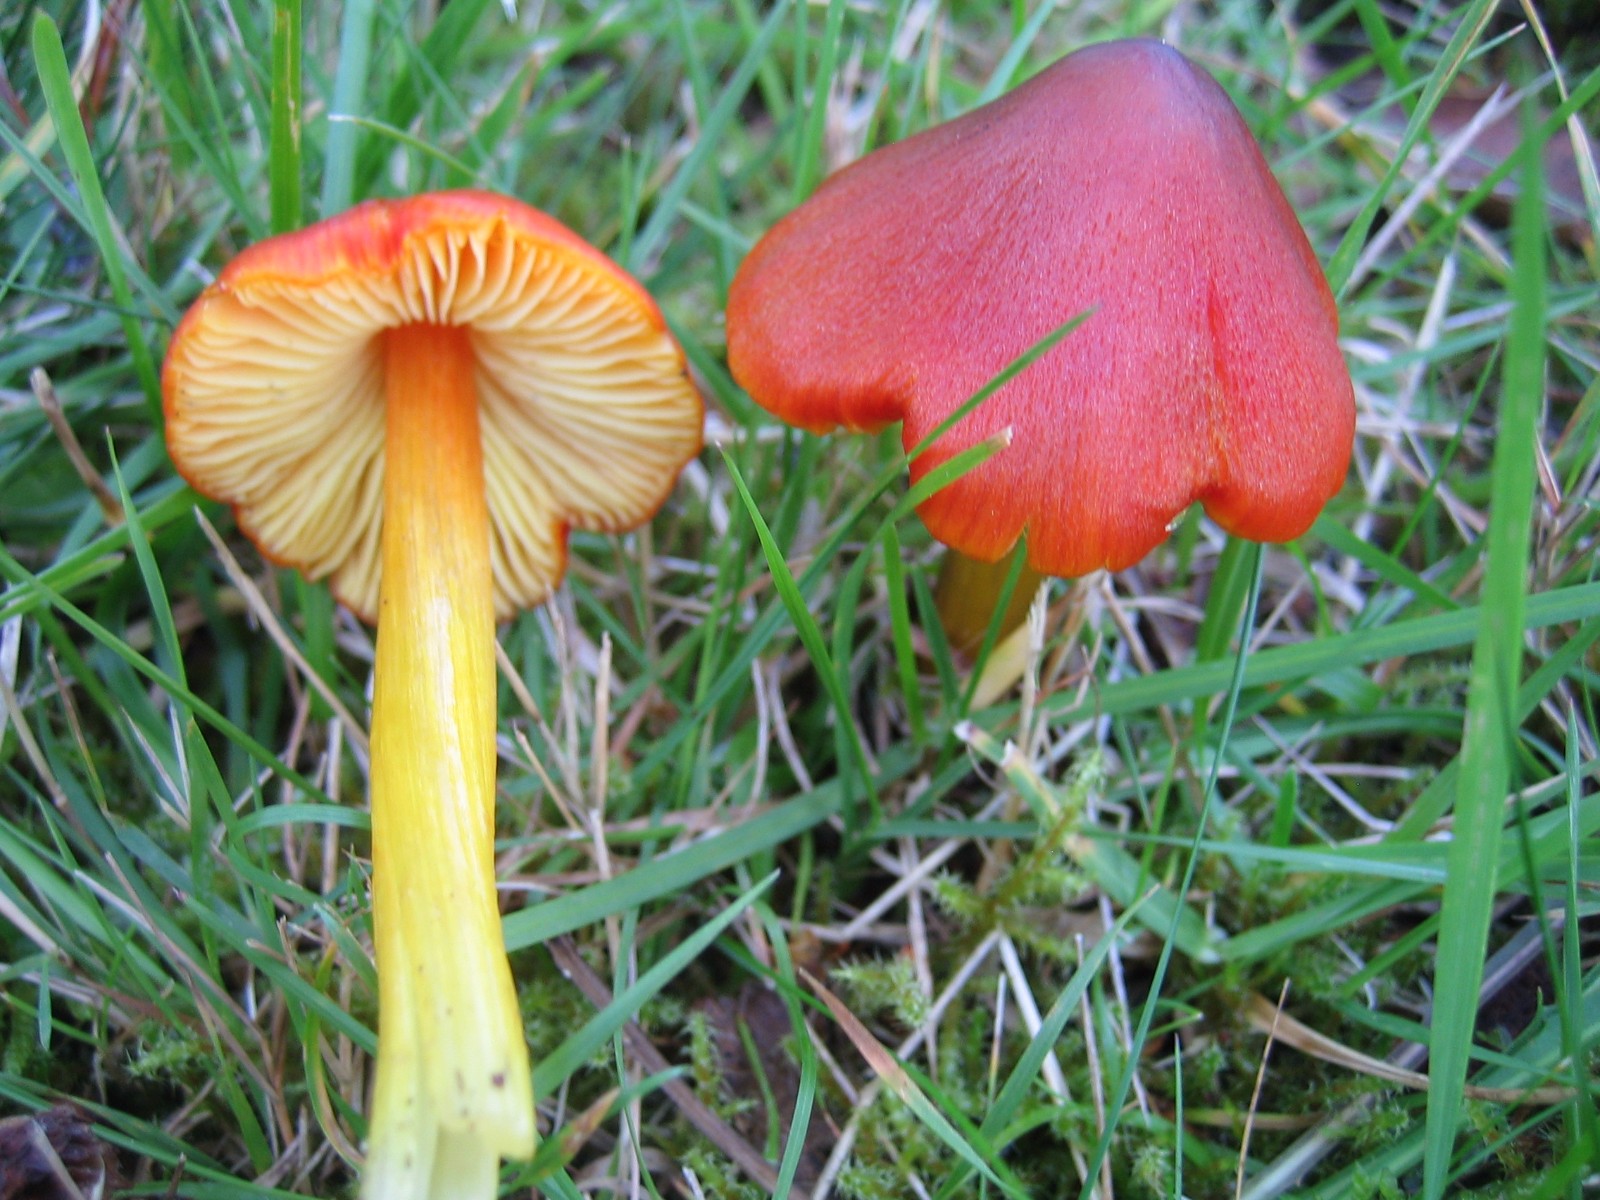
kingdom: Fungi
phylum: Basidiomycota
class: Agaricomycetes
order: Agaricales
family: Hygrophoraceae
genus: Hygrocybe
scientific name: Hygrocybe conica
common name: kegle-vokshat
